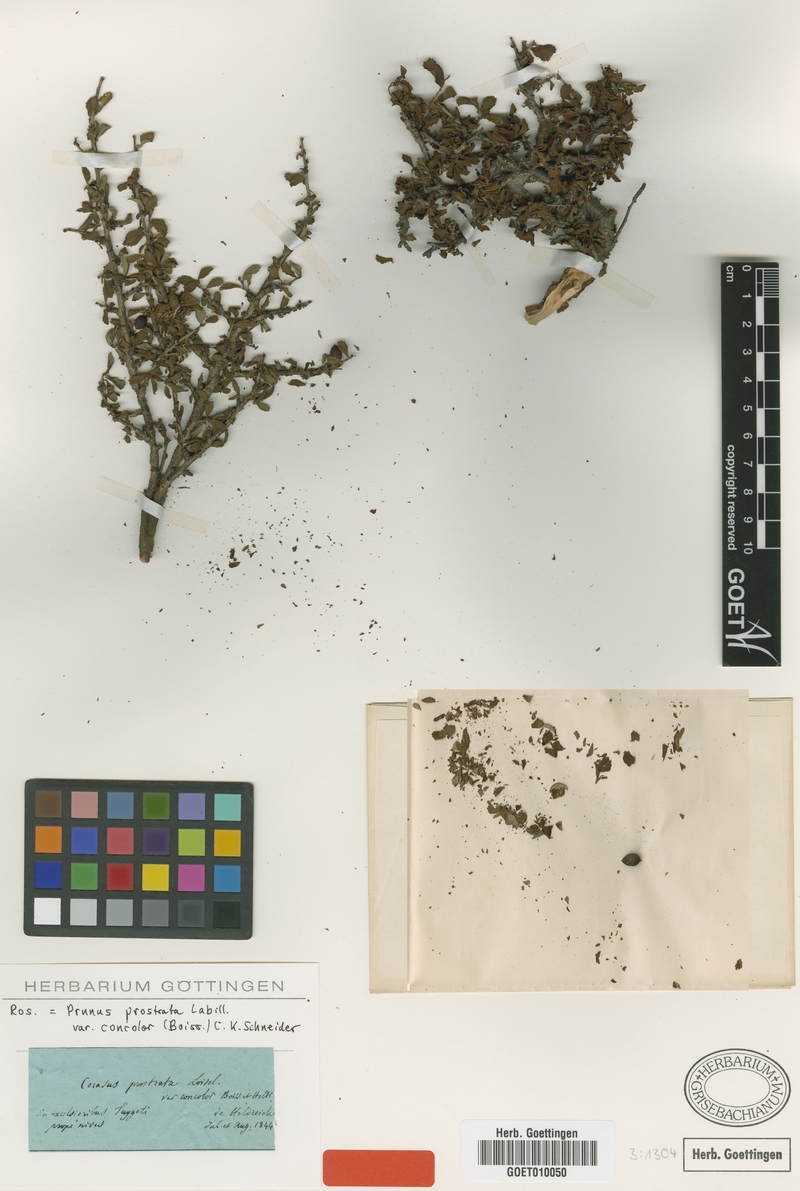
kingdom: Plantae
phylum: Tracheophyta
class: Magnoliopsida
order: Rosales
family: Rosaceae
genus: Prunus
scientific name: Prunus prostrata
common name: Mountain cherry
